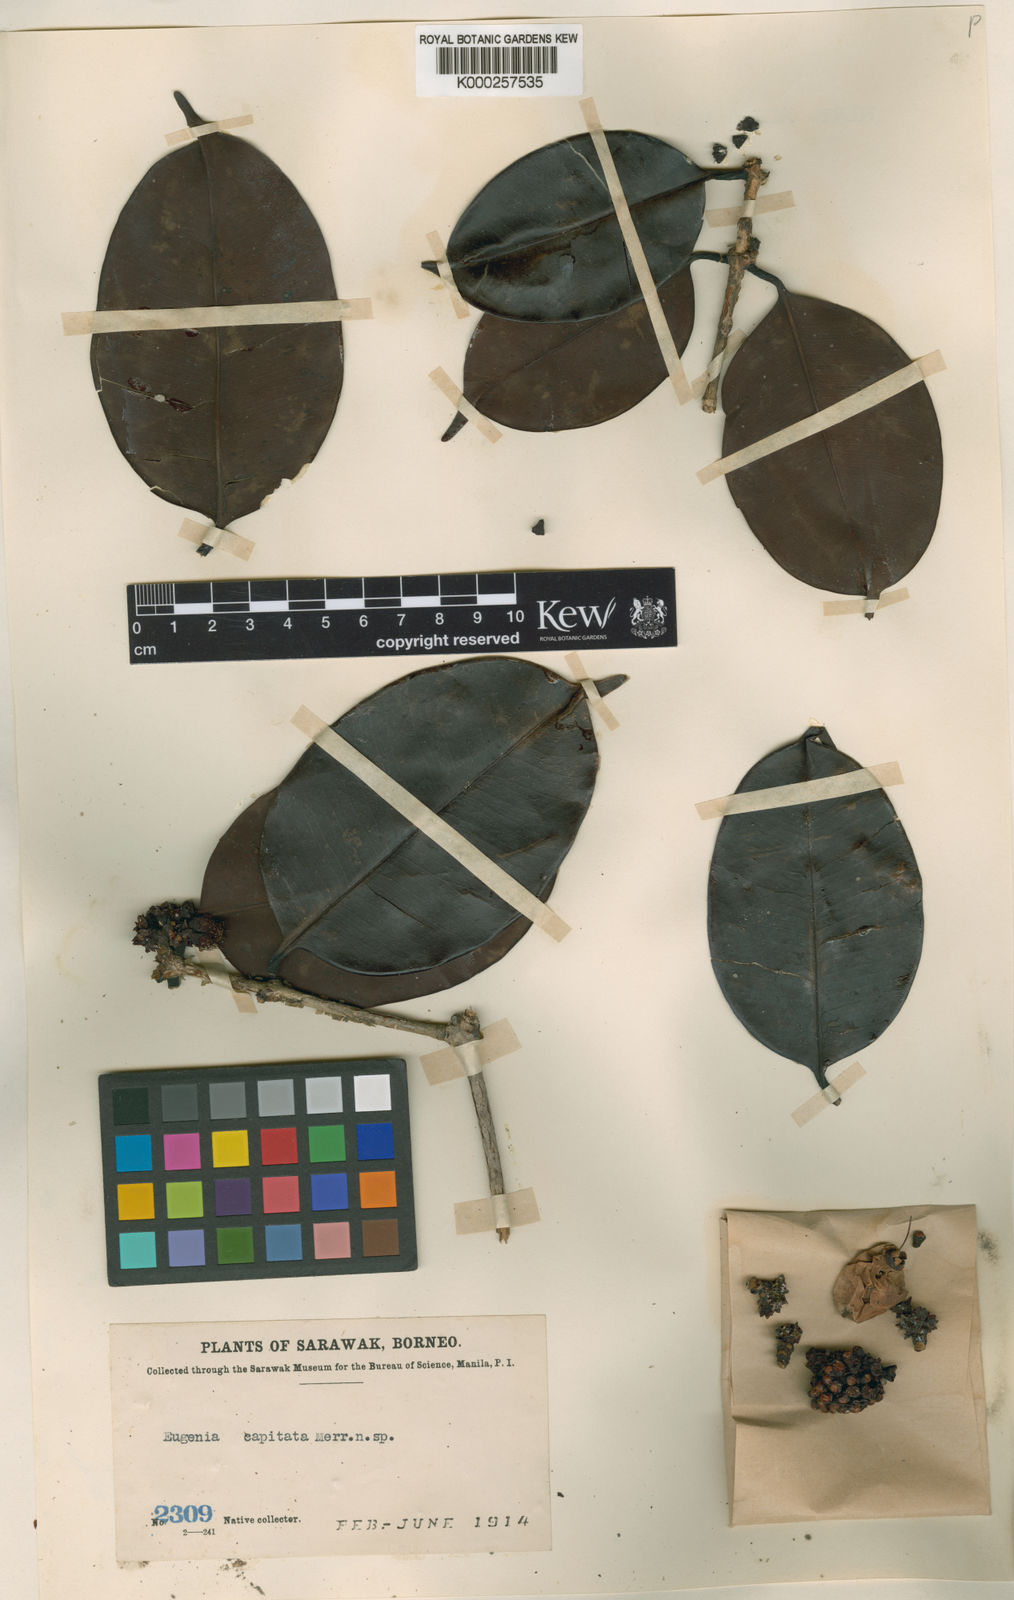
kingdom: Plantae
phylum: Tracheophyta
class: Magnoliopsida
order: Myrtales
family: Myrtaceae
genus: Syzygium
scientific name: Syzygium capitatum
